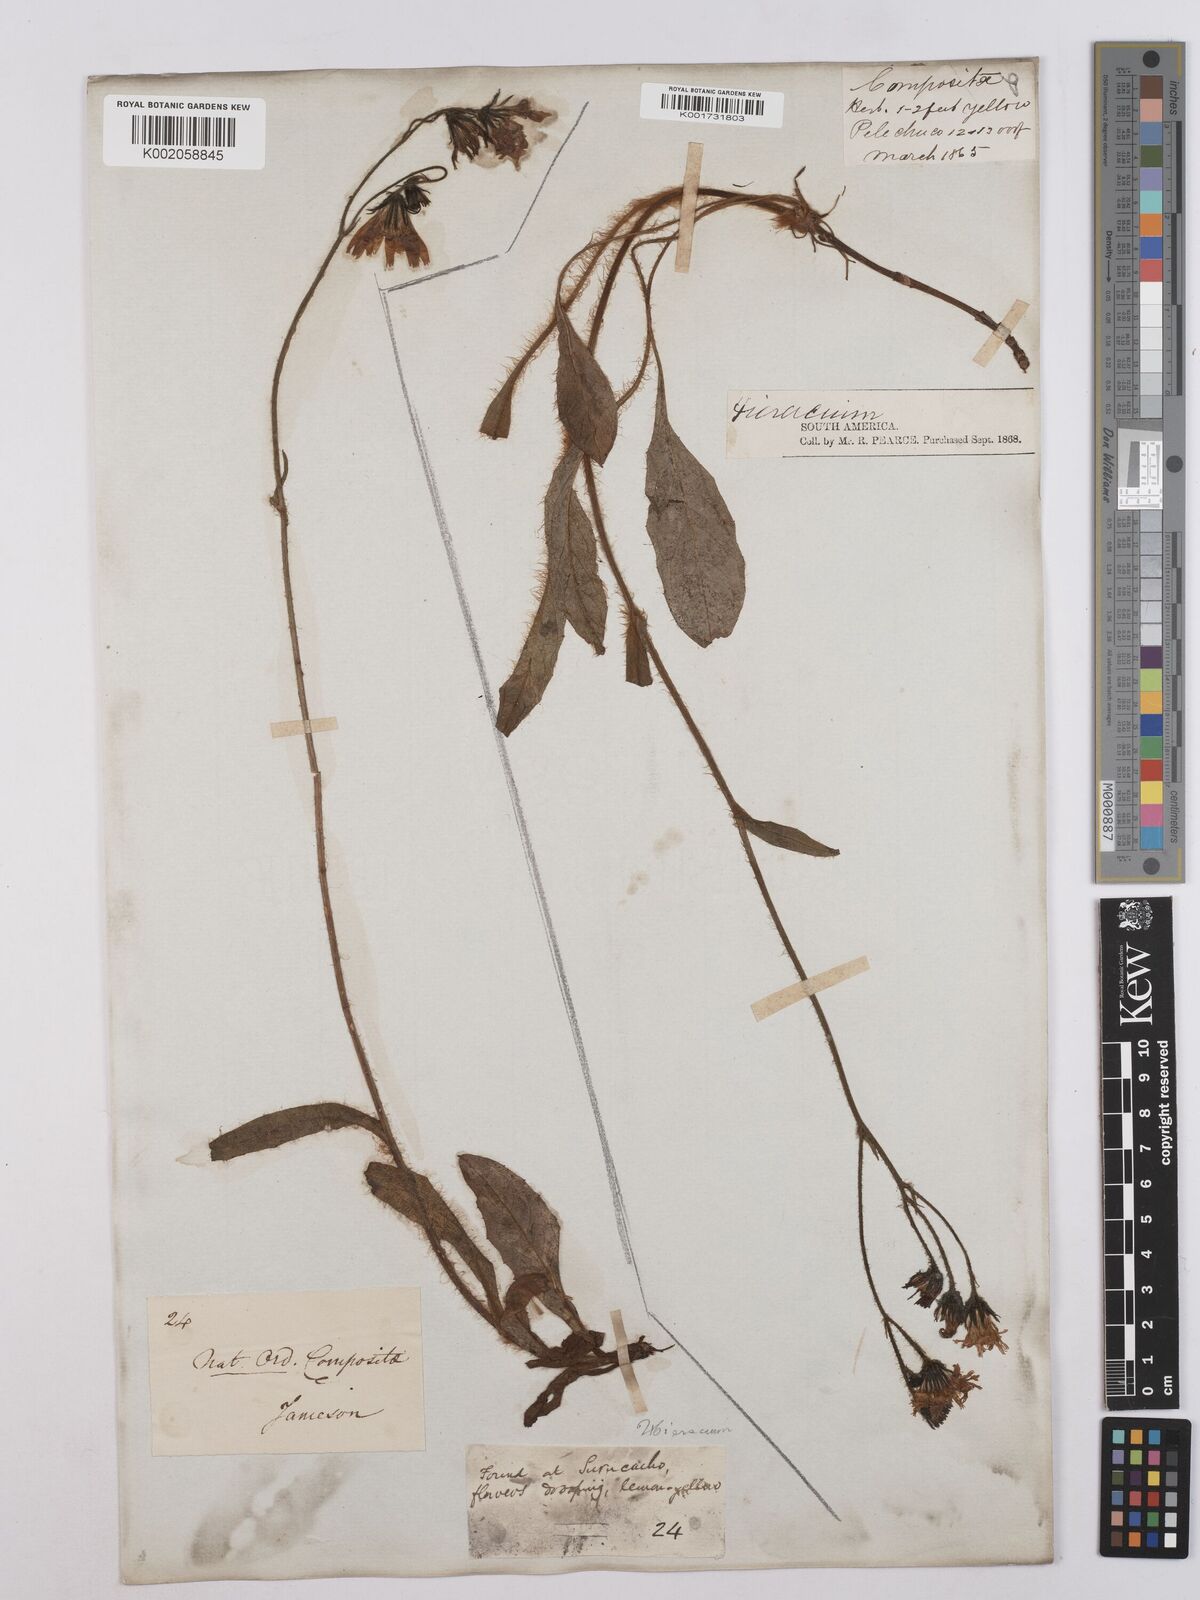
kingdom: Plantae
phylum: Tracheophyta
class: Magnoliopsida
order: Asterales
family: Asteraceae
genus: Hieracium
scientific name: Hieracium leucanthemum
